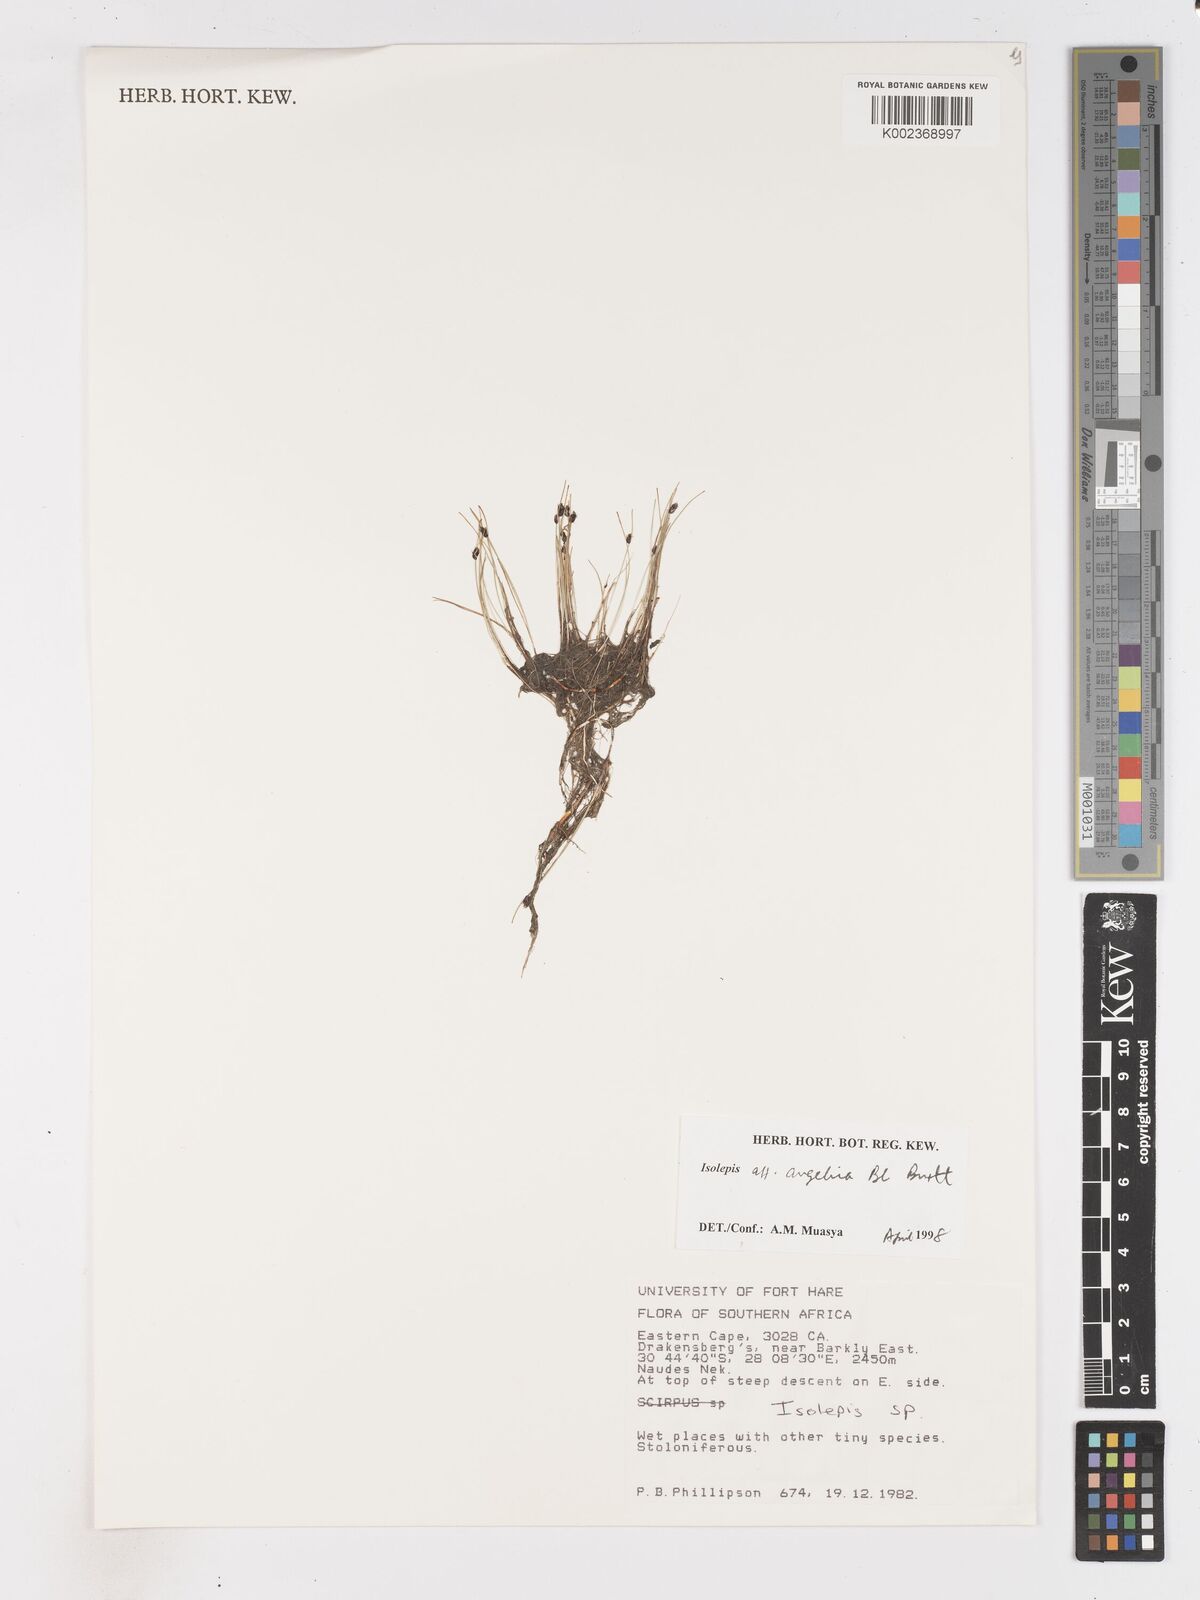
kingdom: Plantae
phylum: Tracheophyta
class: Liliopsida
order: Poales
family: Cyperaceae
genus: Isolepis
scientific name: Isolepis setacea
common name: Bristle club-rush
